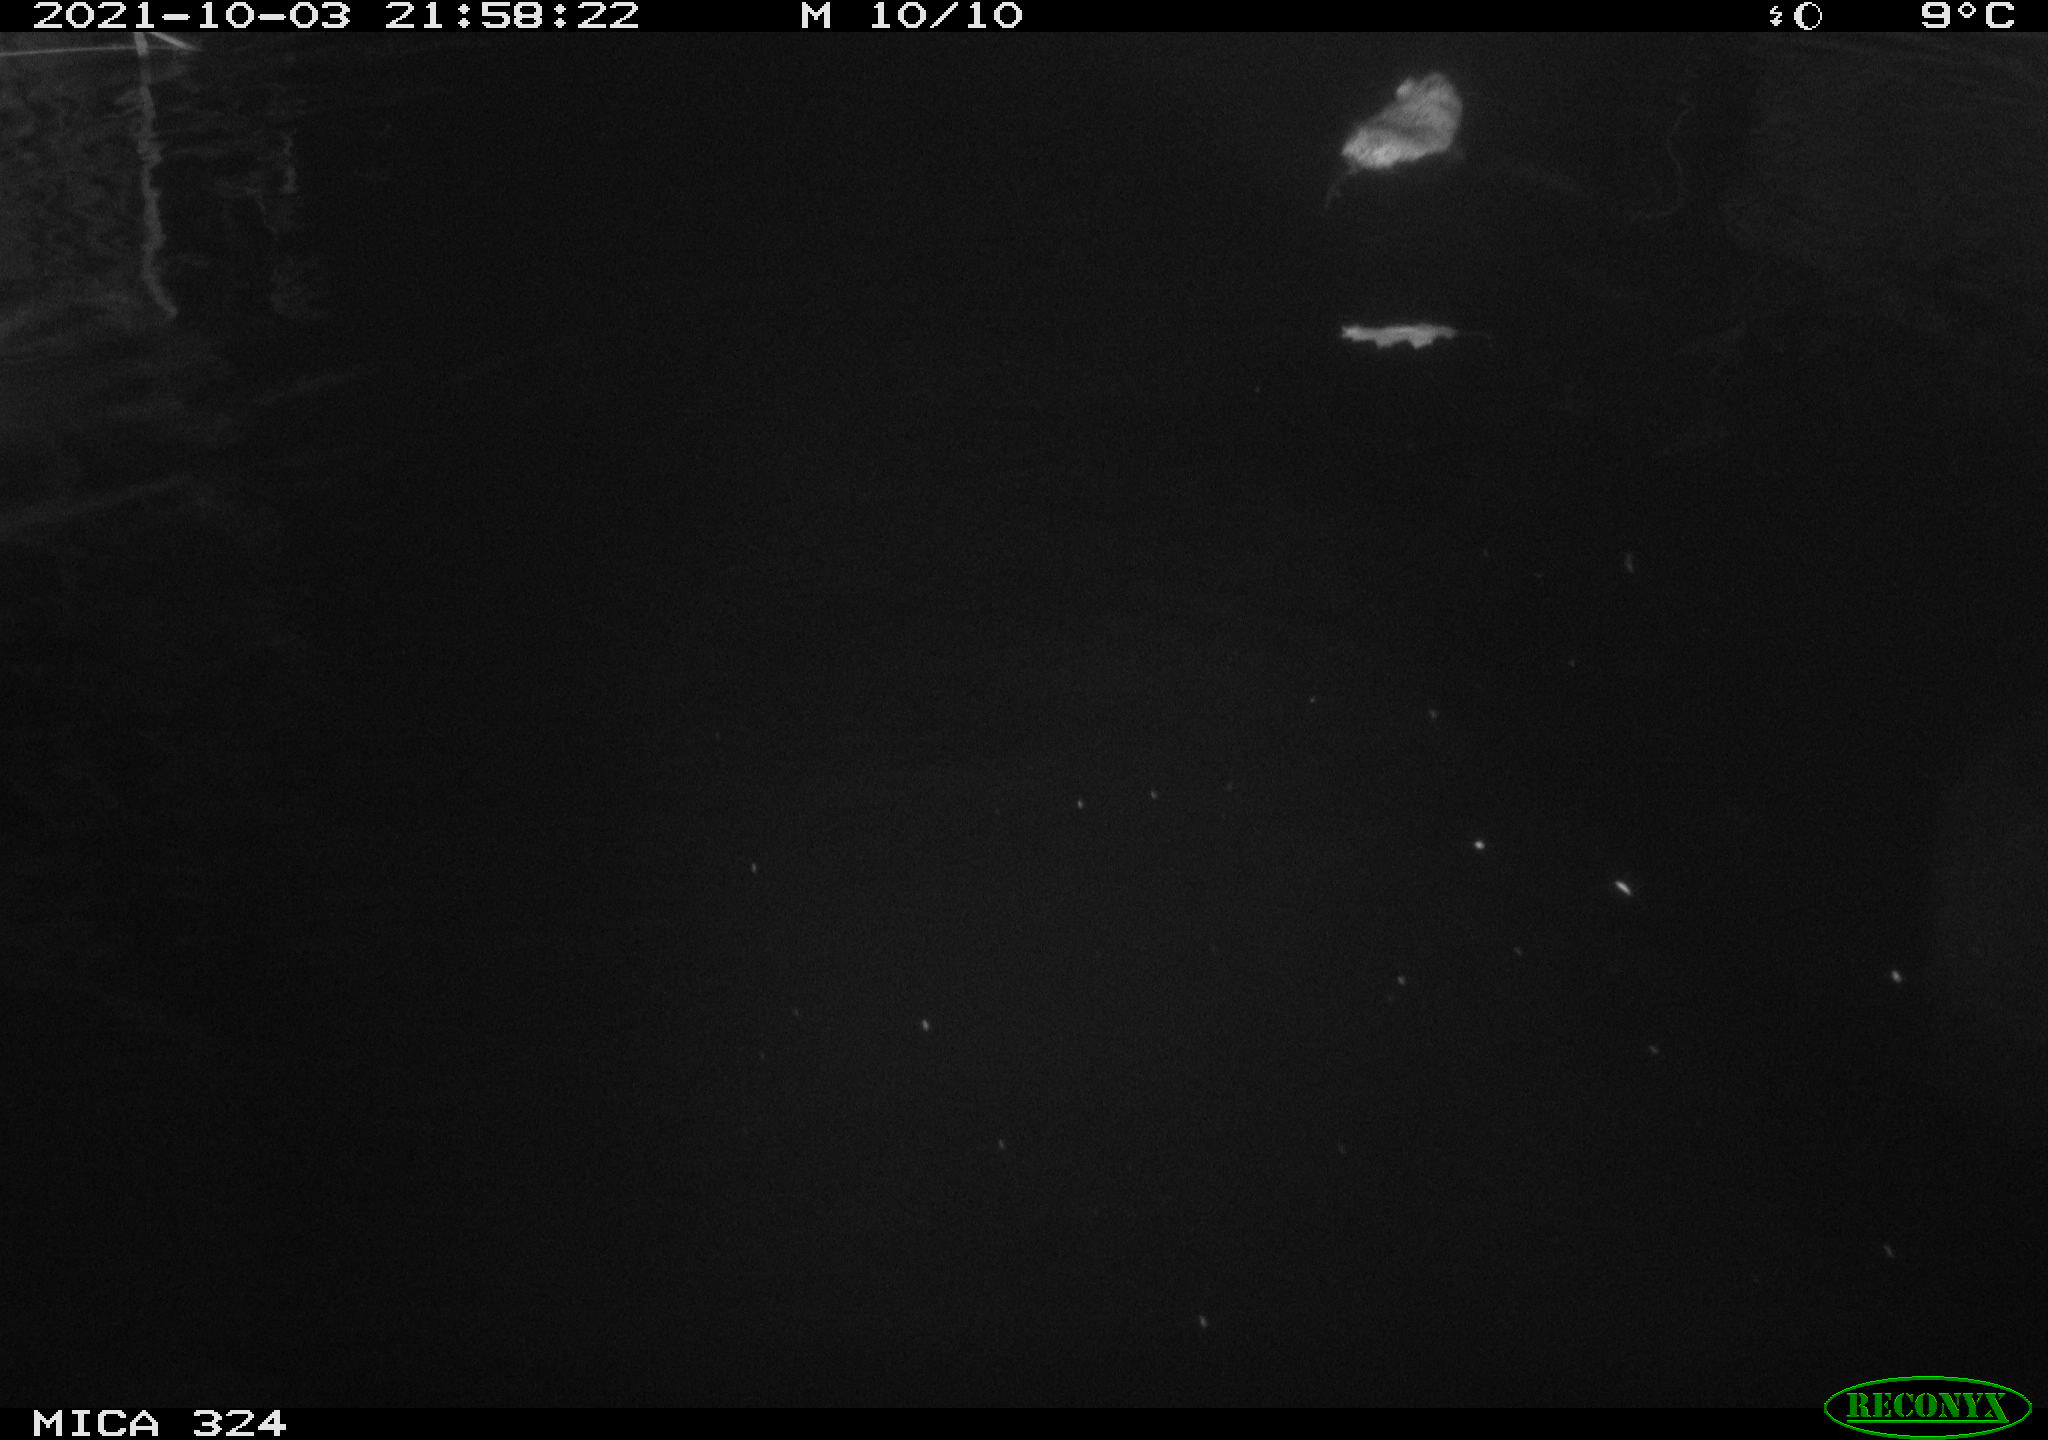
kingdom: Animalia
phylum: Chordata
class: Mammalia
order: Rodentia
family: Cricetidae
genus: Ondatra
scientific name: Ondatra zibethicus
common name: Muskrat
